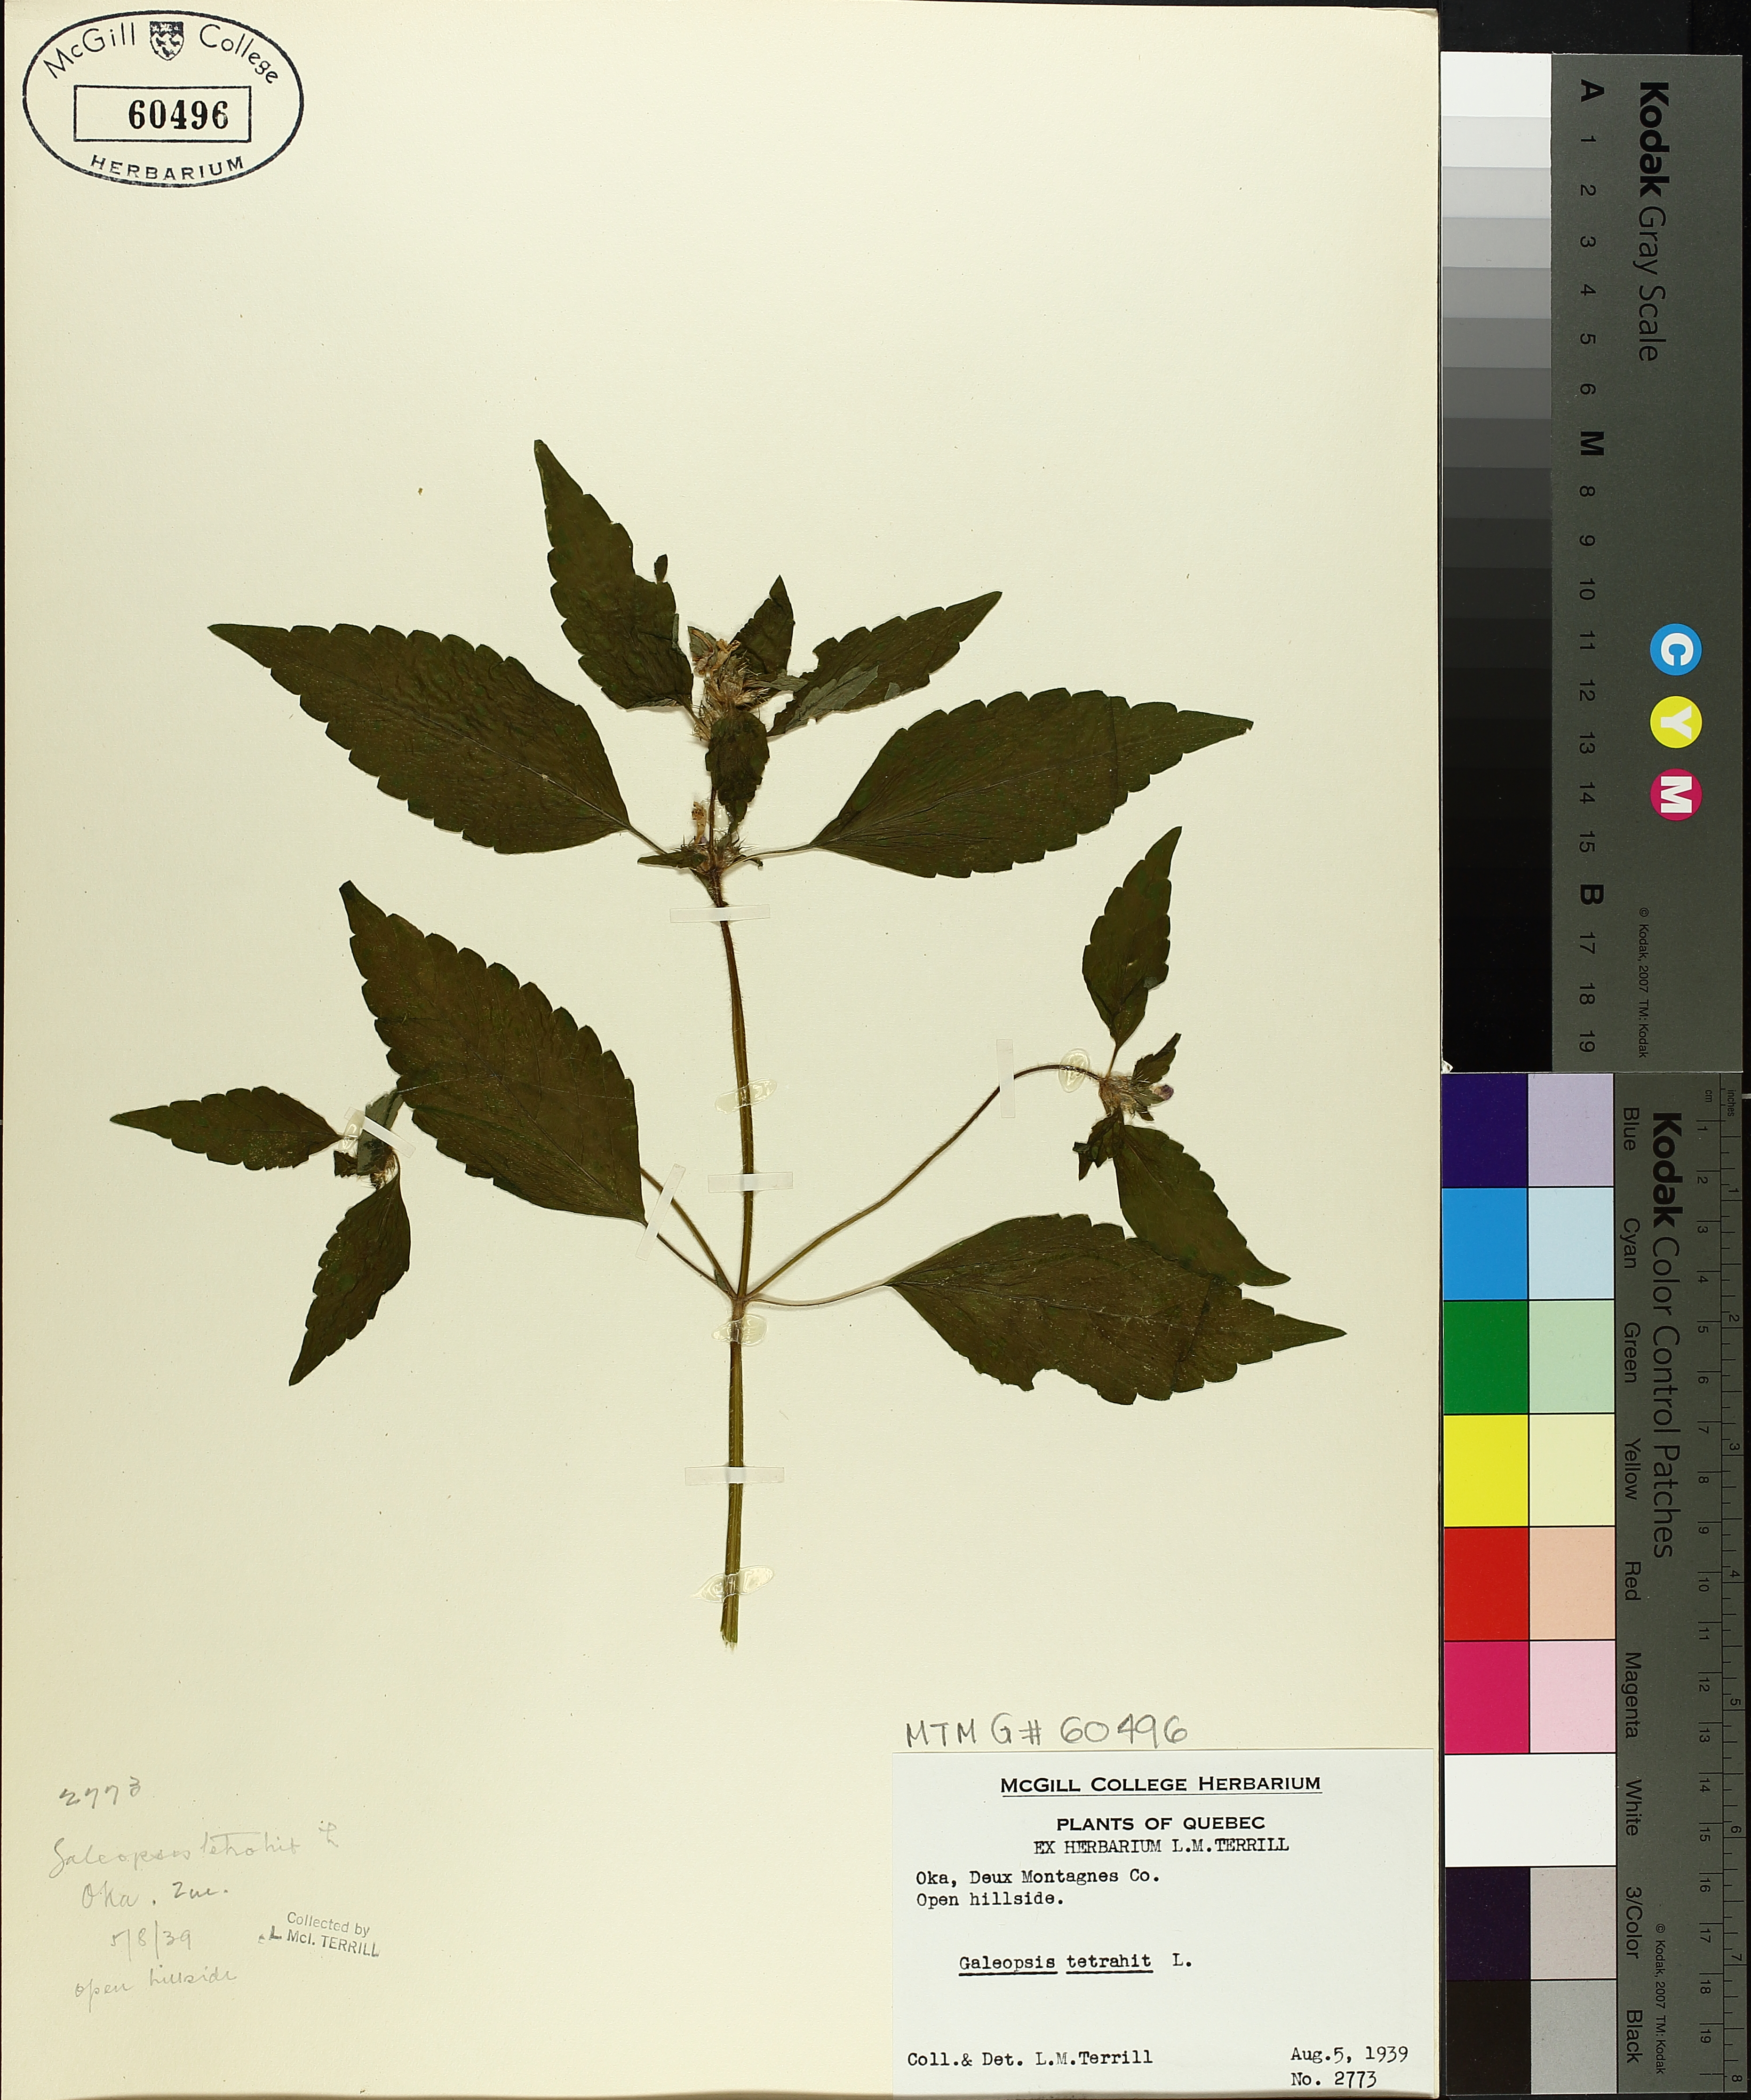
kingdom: Plantae
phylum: Tracheophyta
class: Magnoliopsida
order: Lamiales
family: Lamiaceae
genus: Galeopsis
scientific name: Galeopsis tetrahit
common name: Common hemp-nettle
